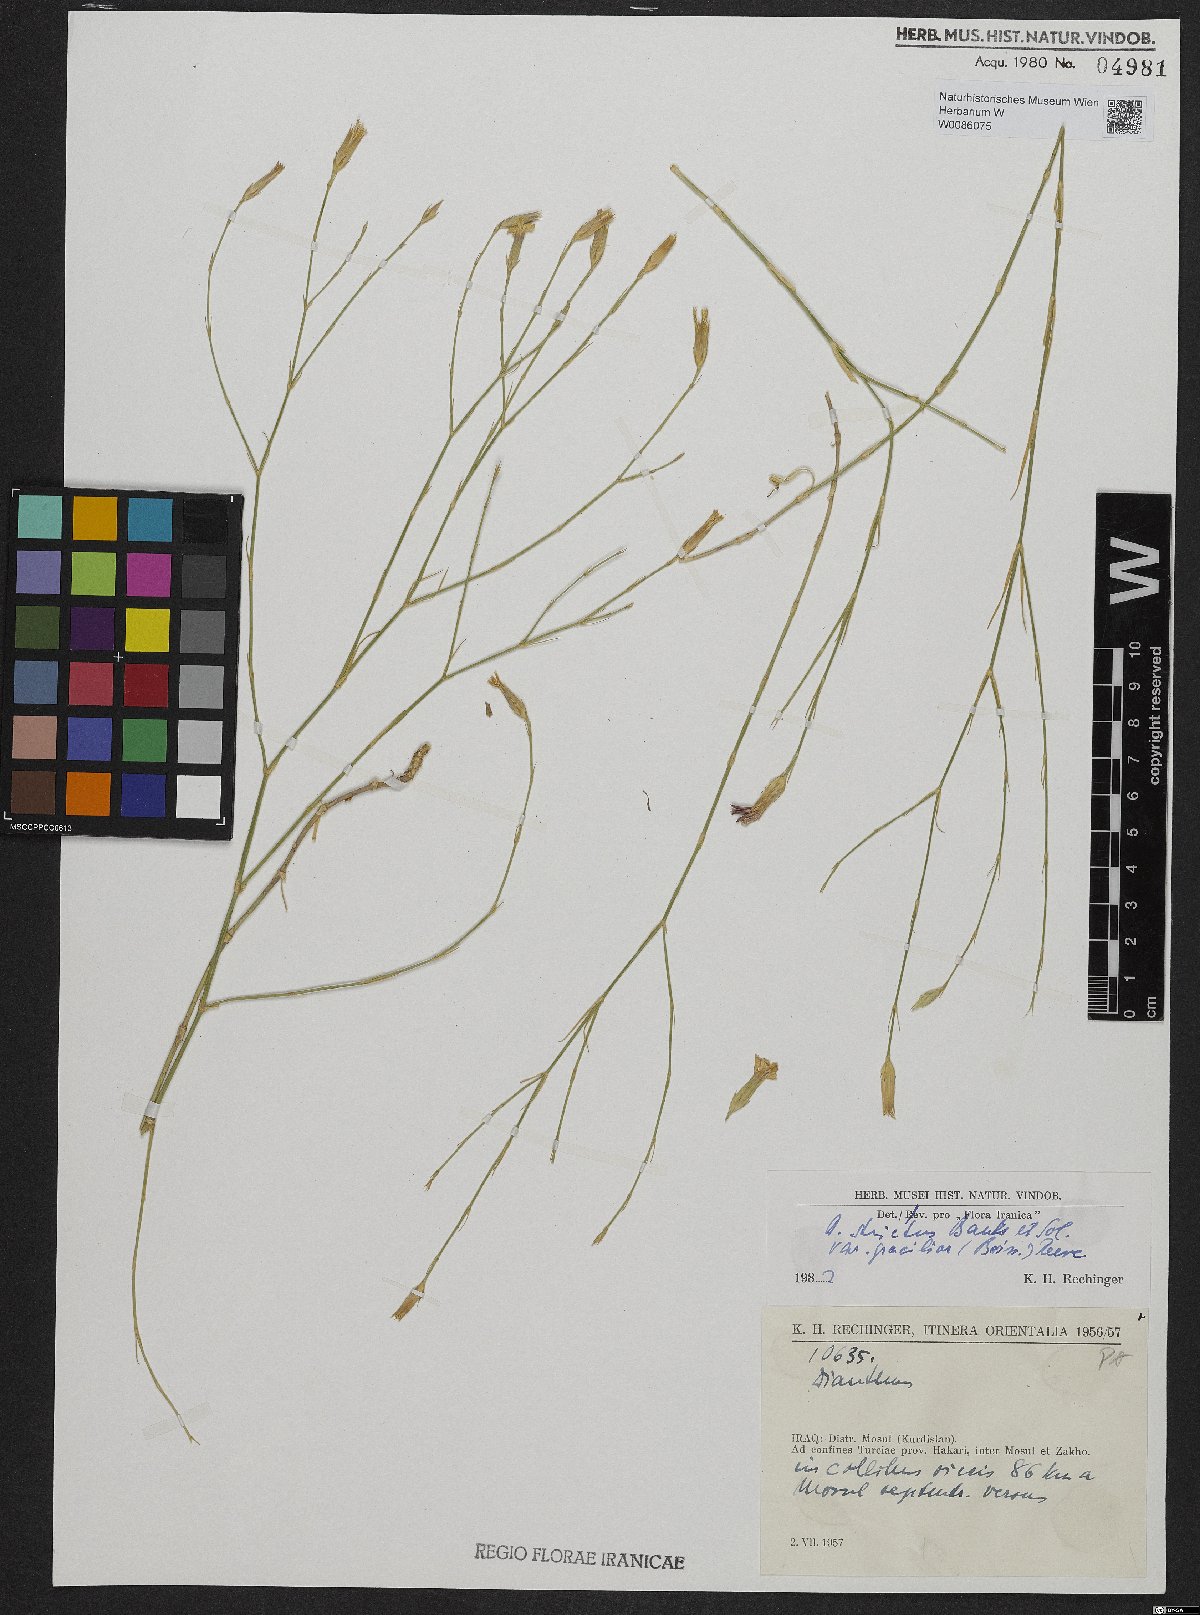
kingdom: Plantae
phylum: Tracheophyta
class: Magnoliopsida
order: Caryophyllales
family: Caryophyllaceae
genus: Dianthus
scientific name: Dianthus strictus
